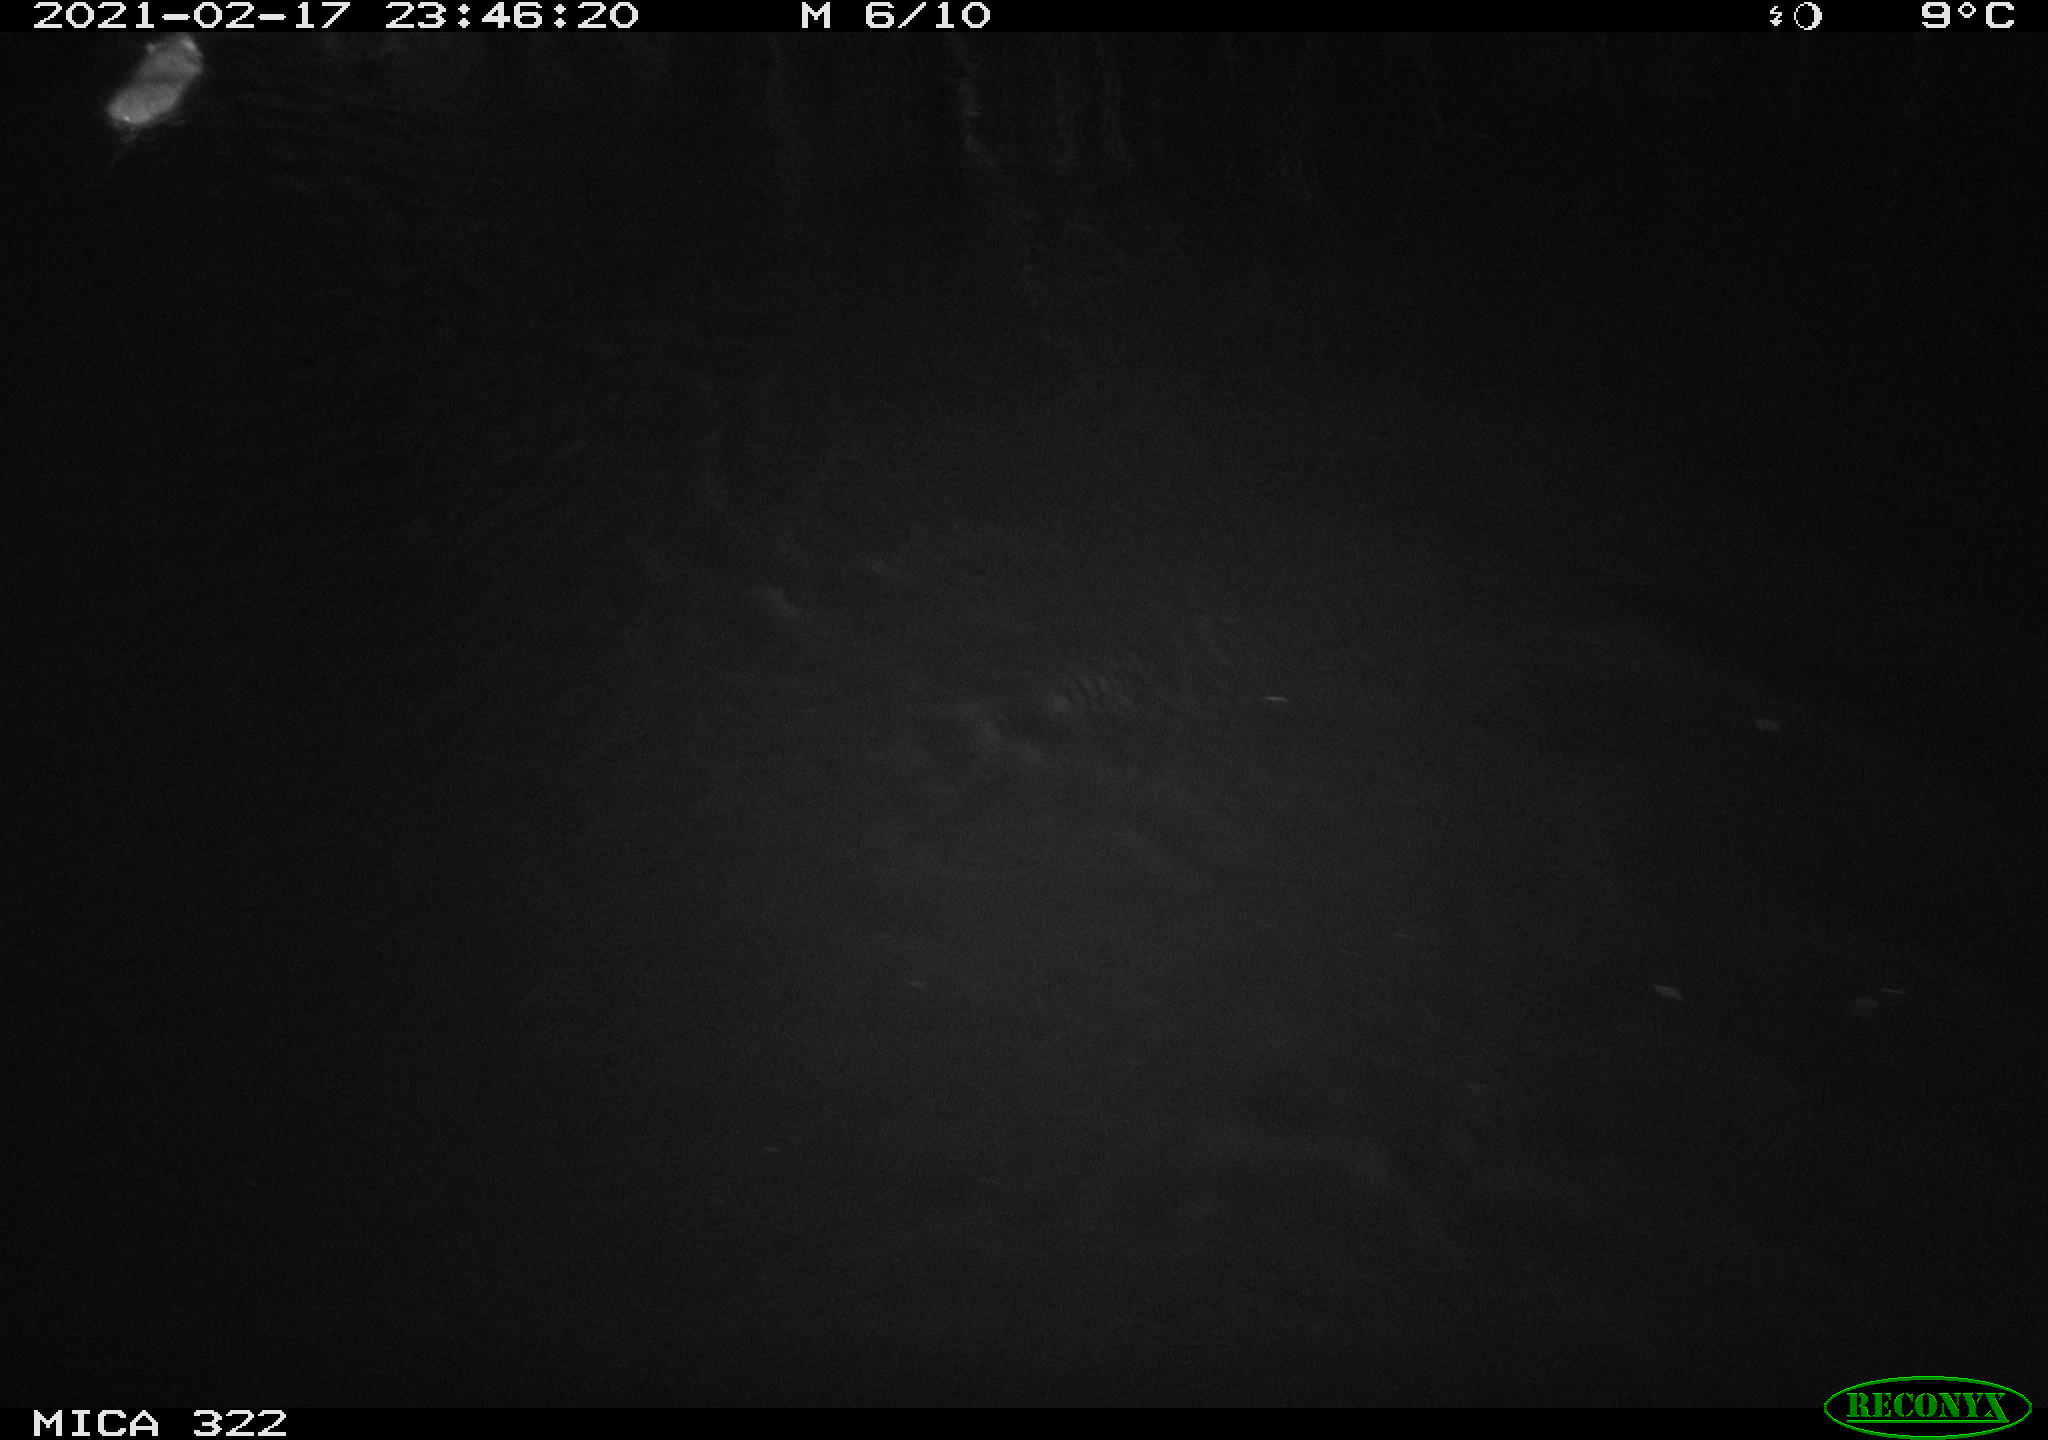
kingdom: Animalia
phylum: Chordata
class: Mammalia
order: Rodentia
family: Muridae
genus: Rattus
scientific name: Rattus norvegicus
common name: Brown rat
